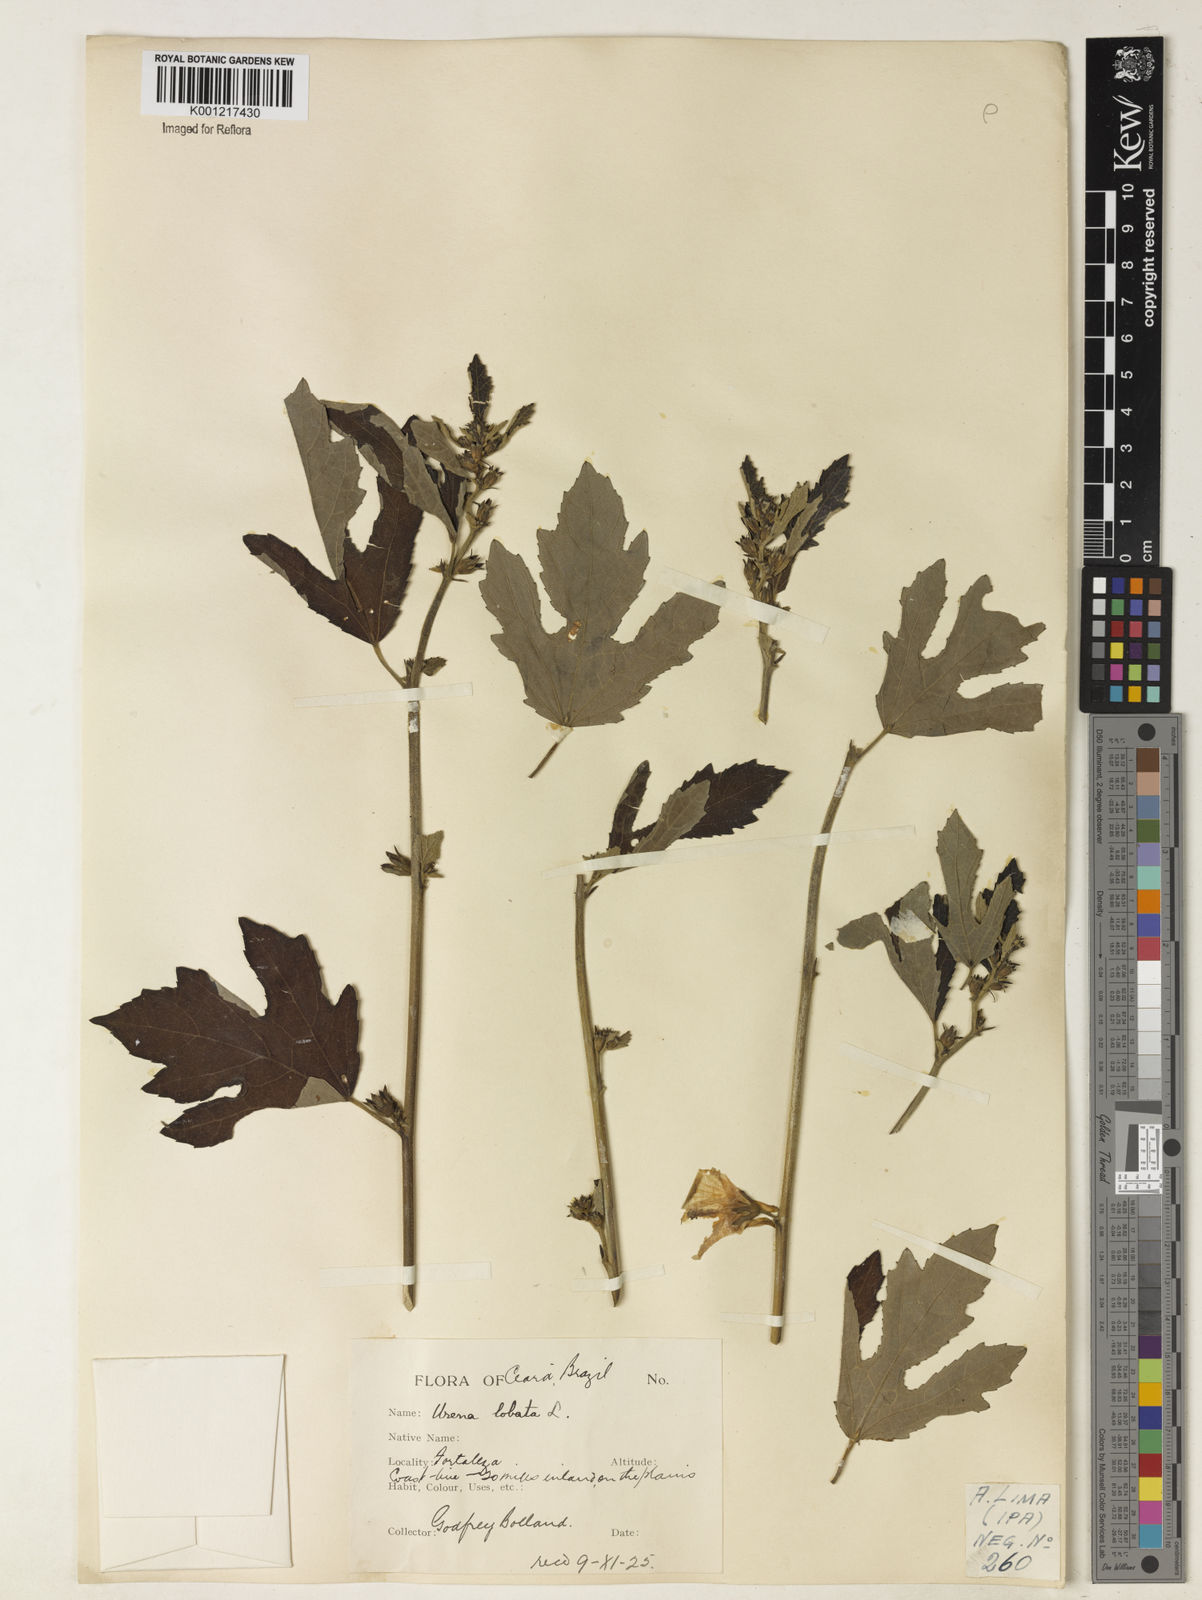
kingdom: Plantae
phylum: Tracheophyta
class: Magnoliopsida
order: Malvales
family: Malvaceae
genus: Urena
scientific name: Urena lobata
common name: Caesarweed
